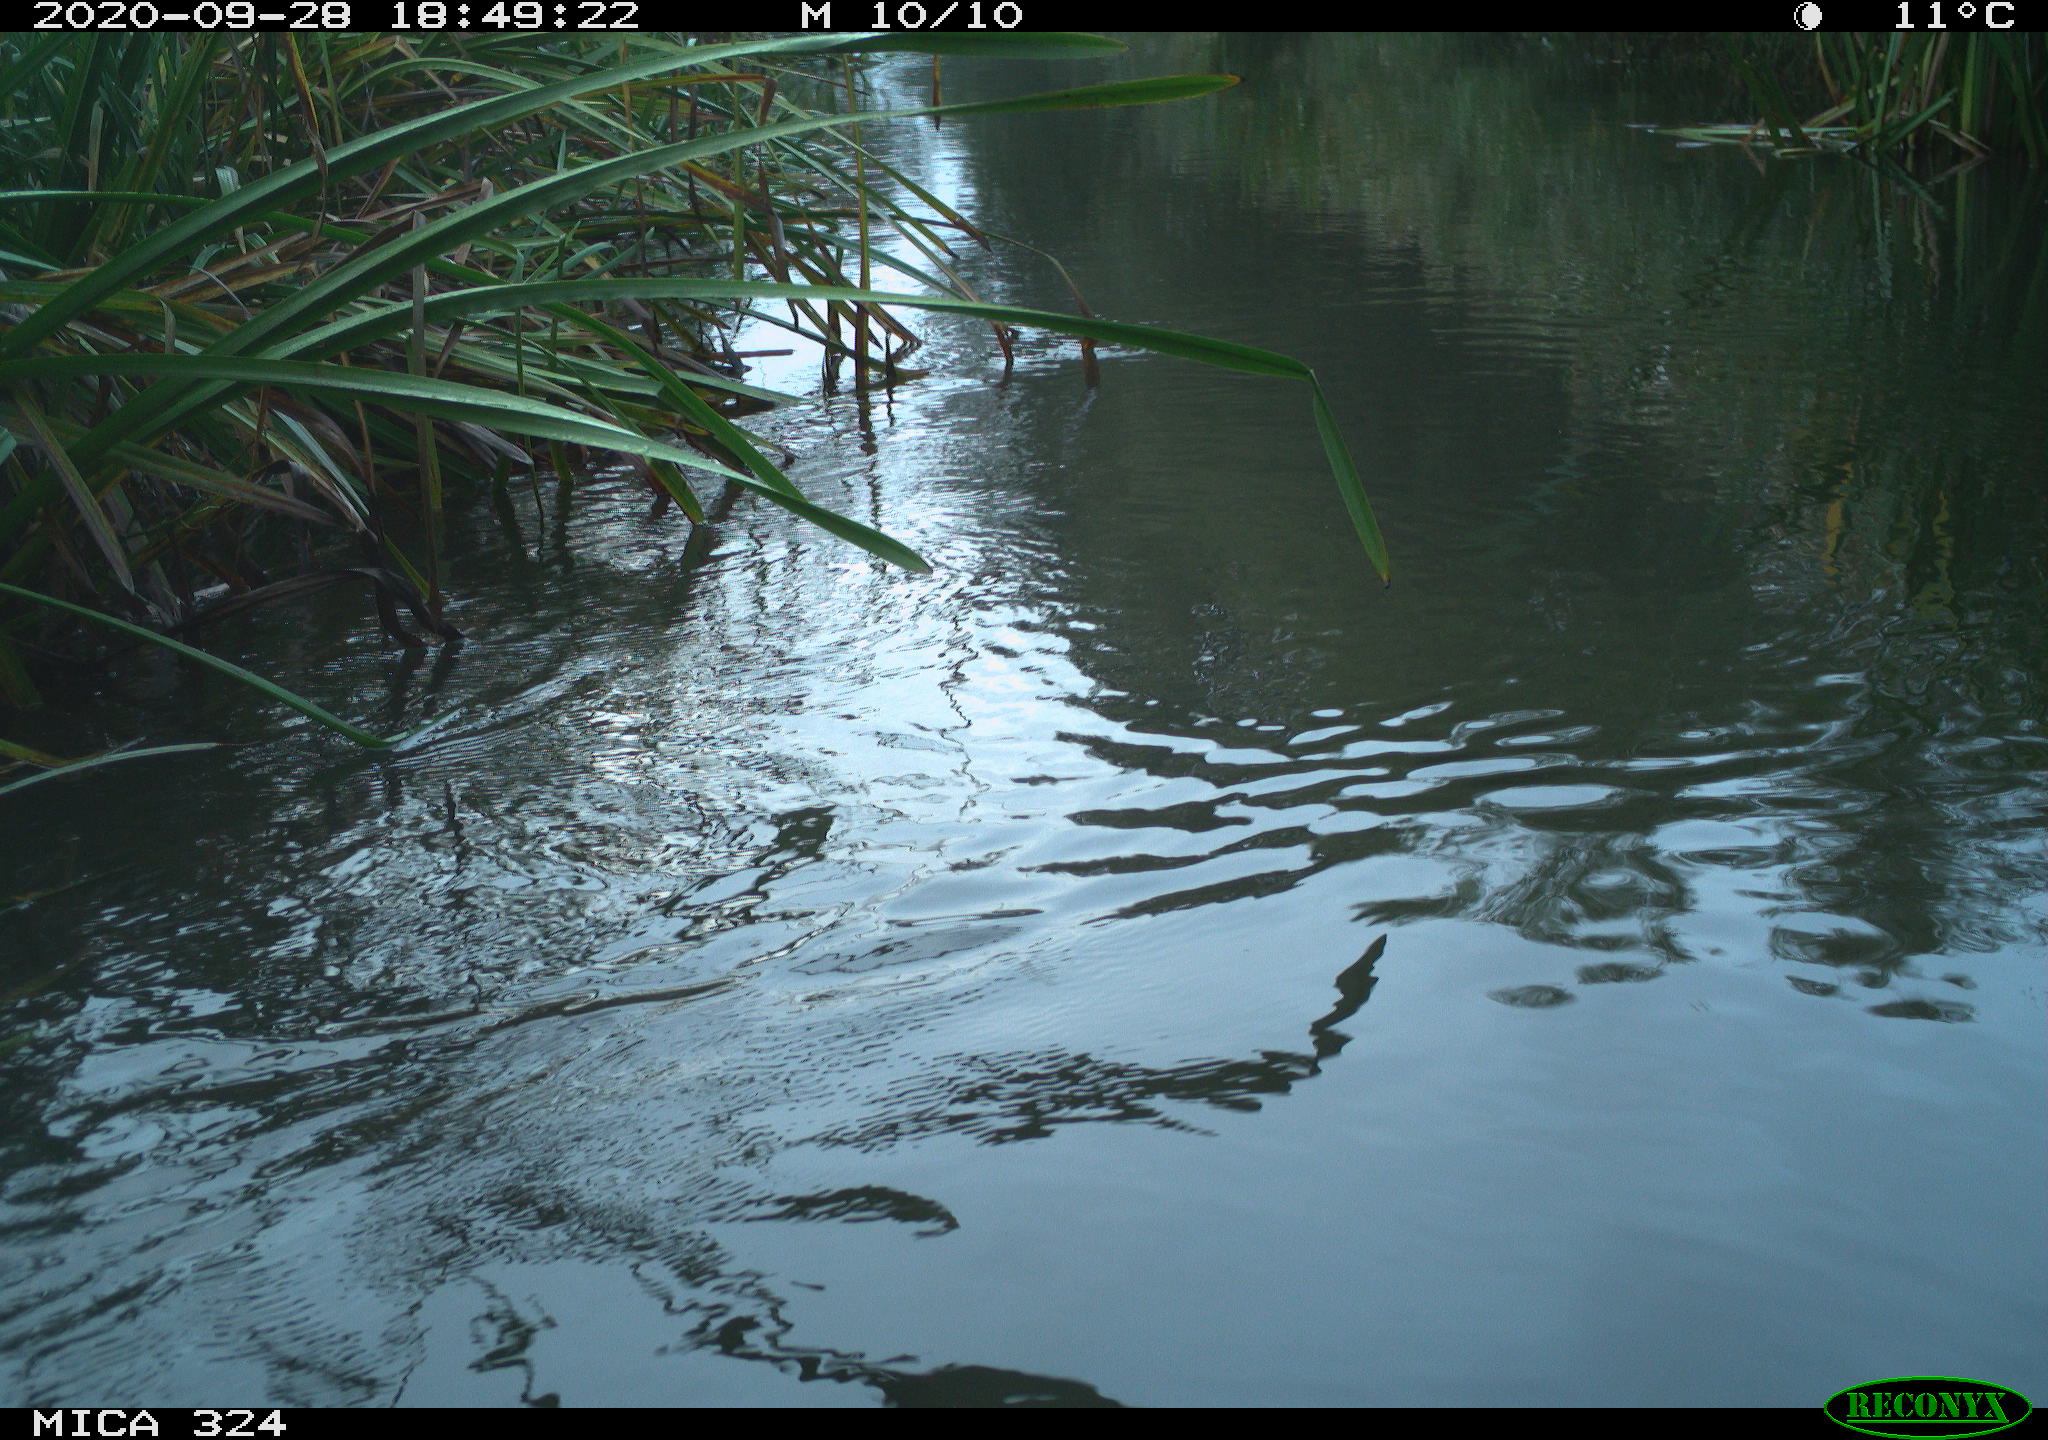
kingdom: Animalia
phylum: Chordata
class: Aves
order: Gruiformes
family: Rallidae
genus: Gallinula
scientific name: Gallinula chloropus
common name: Common moorhen
